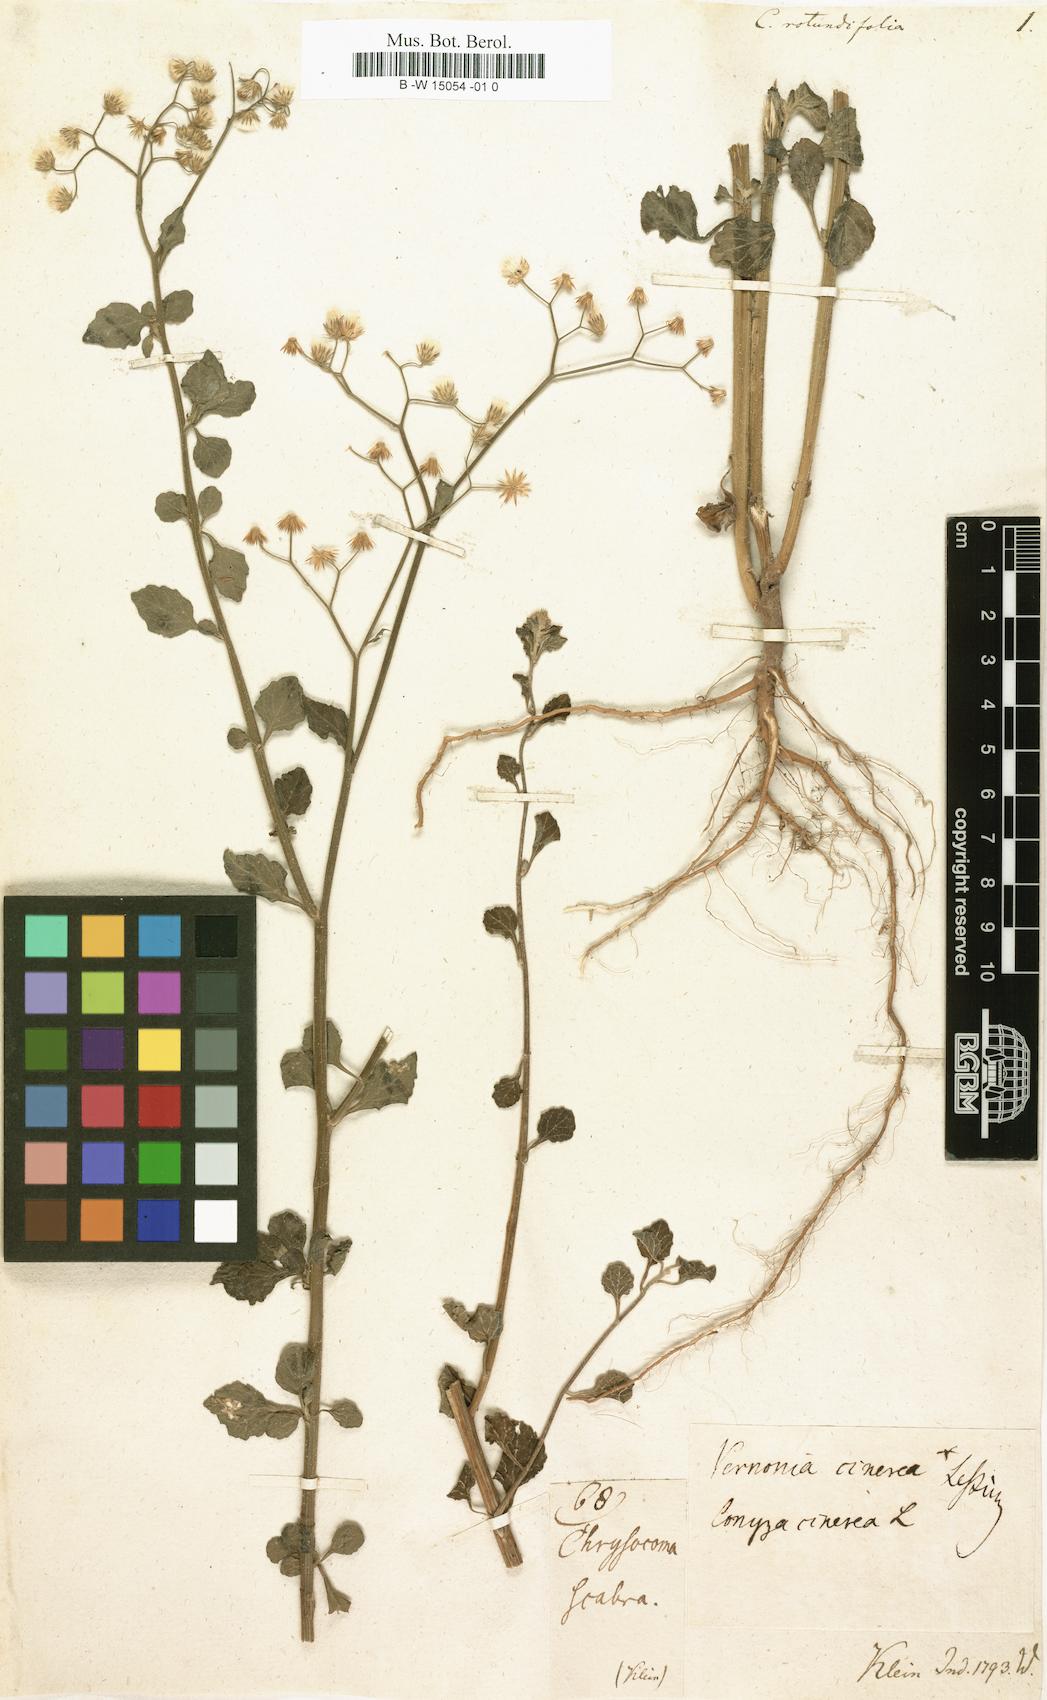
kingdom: Plantae
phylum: Tracheophyta
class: Magnoliopsida
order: Asterales
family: Asteraceae
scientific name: Asteraceae
